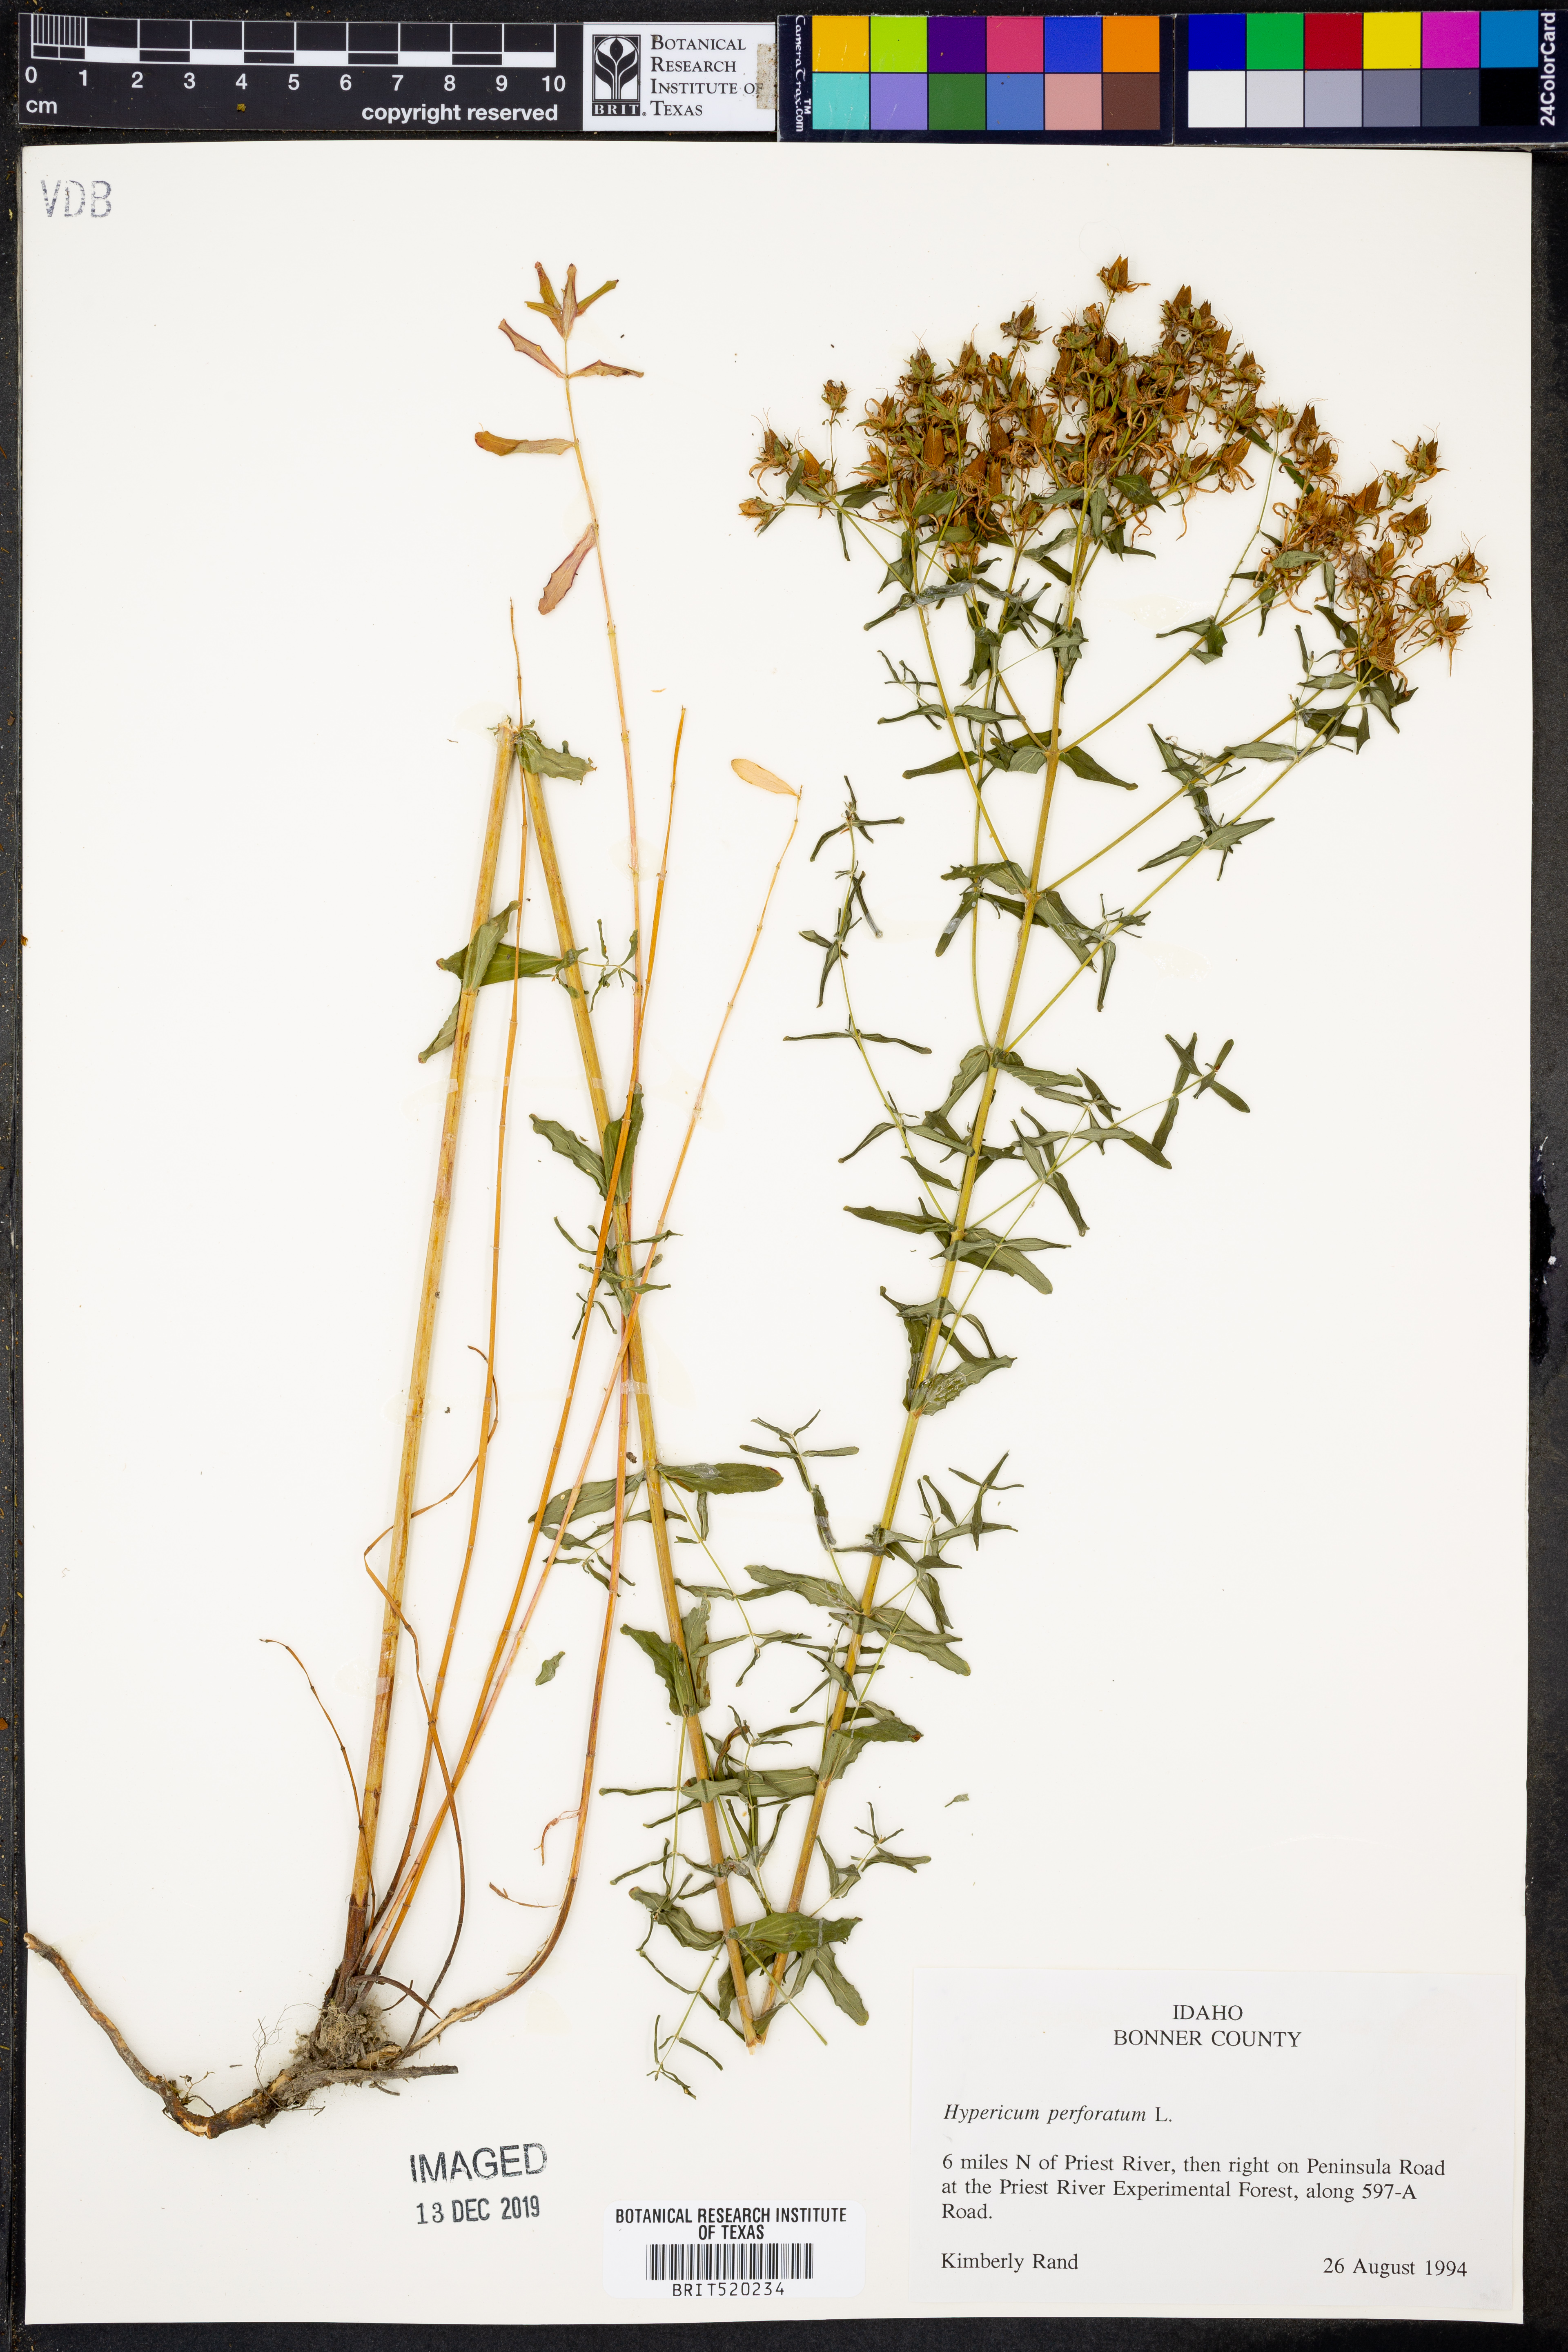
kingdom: Plantae
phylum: Tracheophyta
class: Magnoliopsida
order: Malpighiales
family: Hypericaceae
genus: Hypericum
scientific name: Hypericum perforatum
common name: Common st. johnswort
